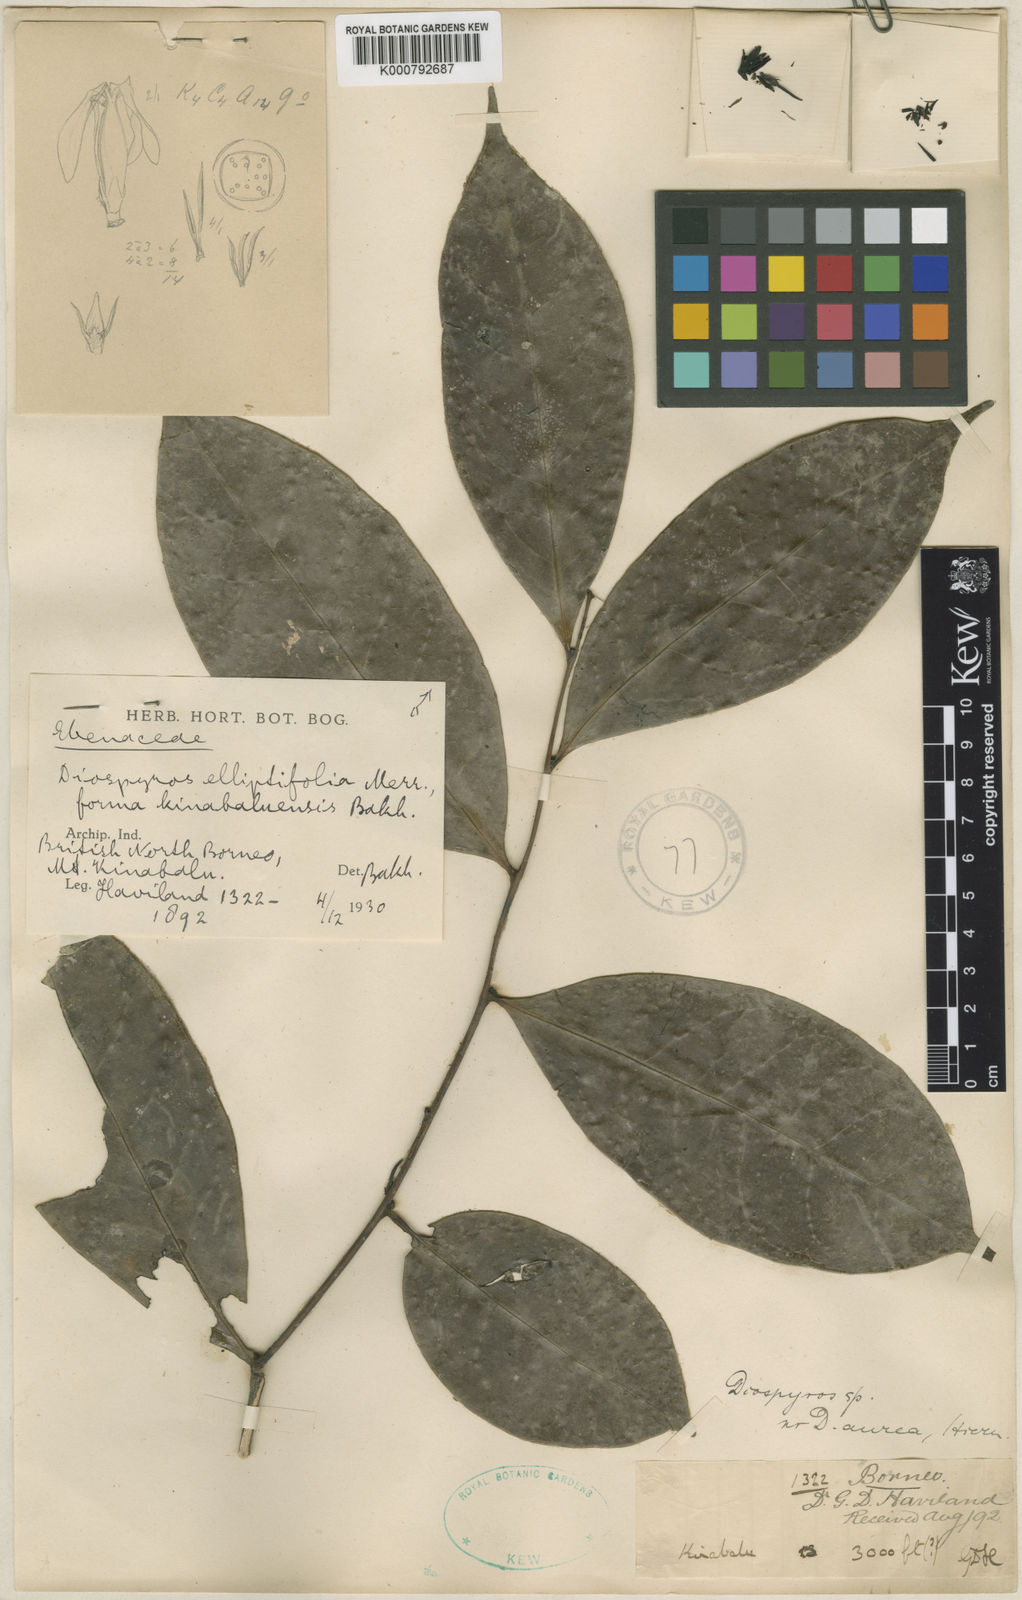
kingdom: Plantae
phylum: Tracheophyta
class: Magnoliopsida
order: Ericales
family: Ebenaceae
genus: Diospyros
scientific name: Diospyros elliptifolia
